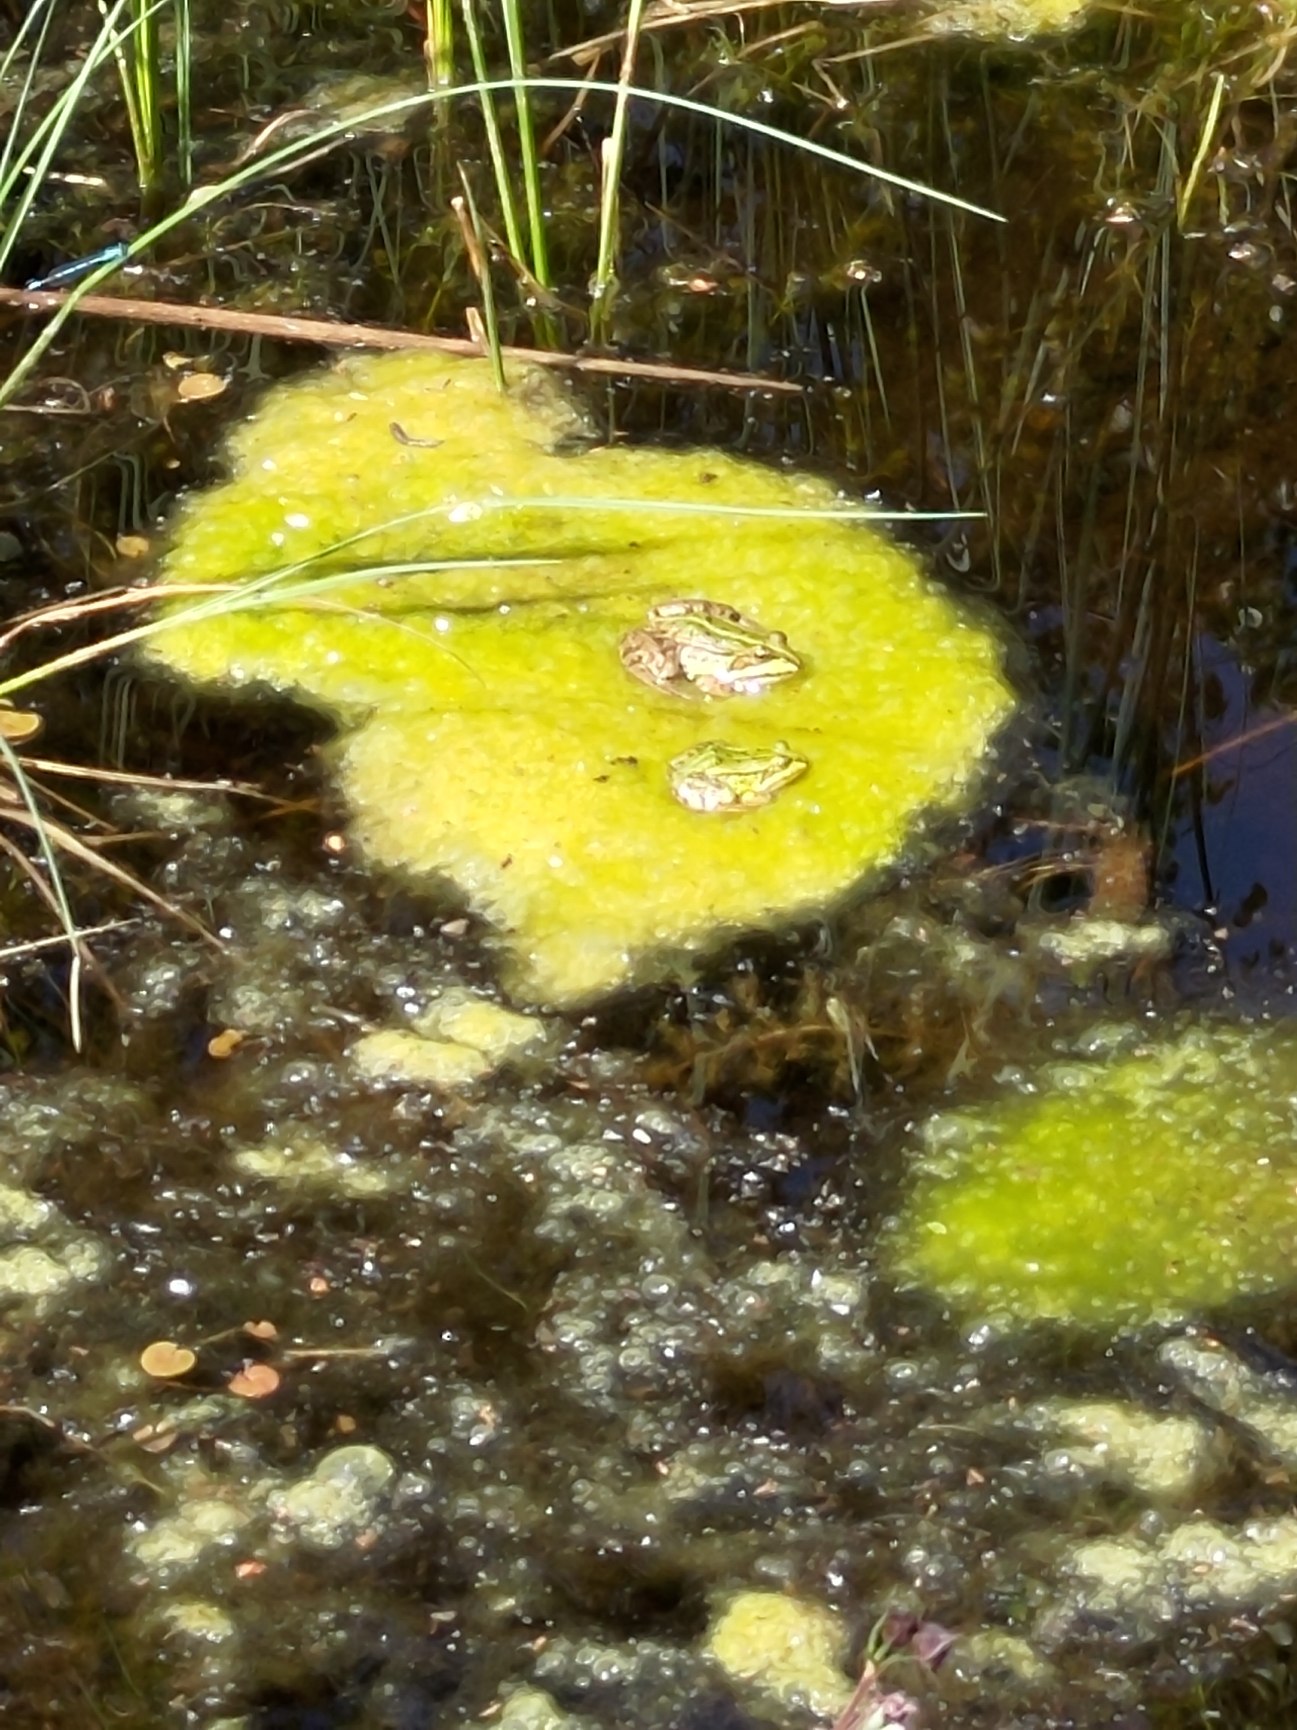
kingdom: Animalia
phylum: Chordata
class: Amphibia
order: Anura
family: Ranidae
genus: Pelophylax
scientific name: Pelophylax lessonae
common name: Grøn frø
